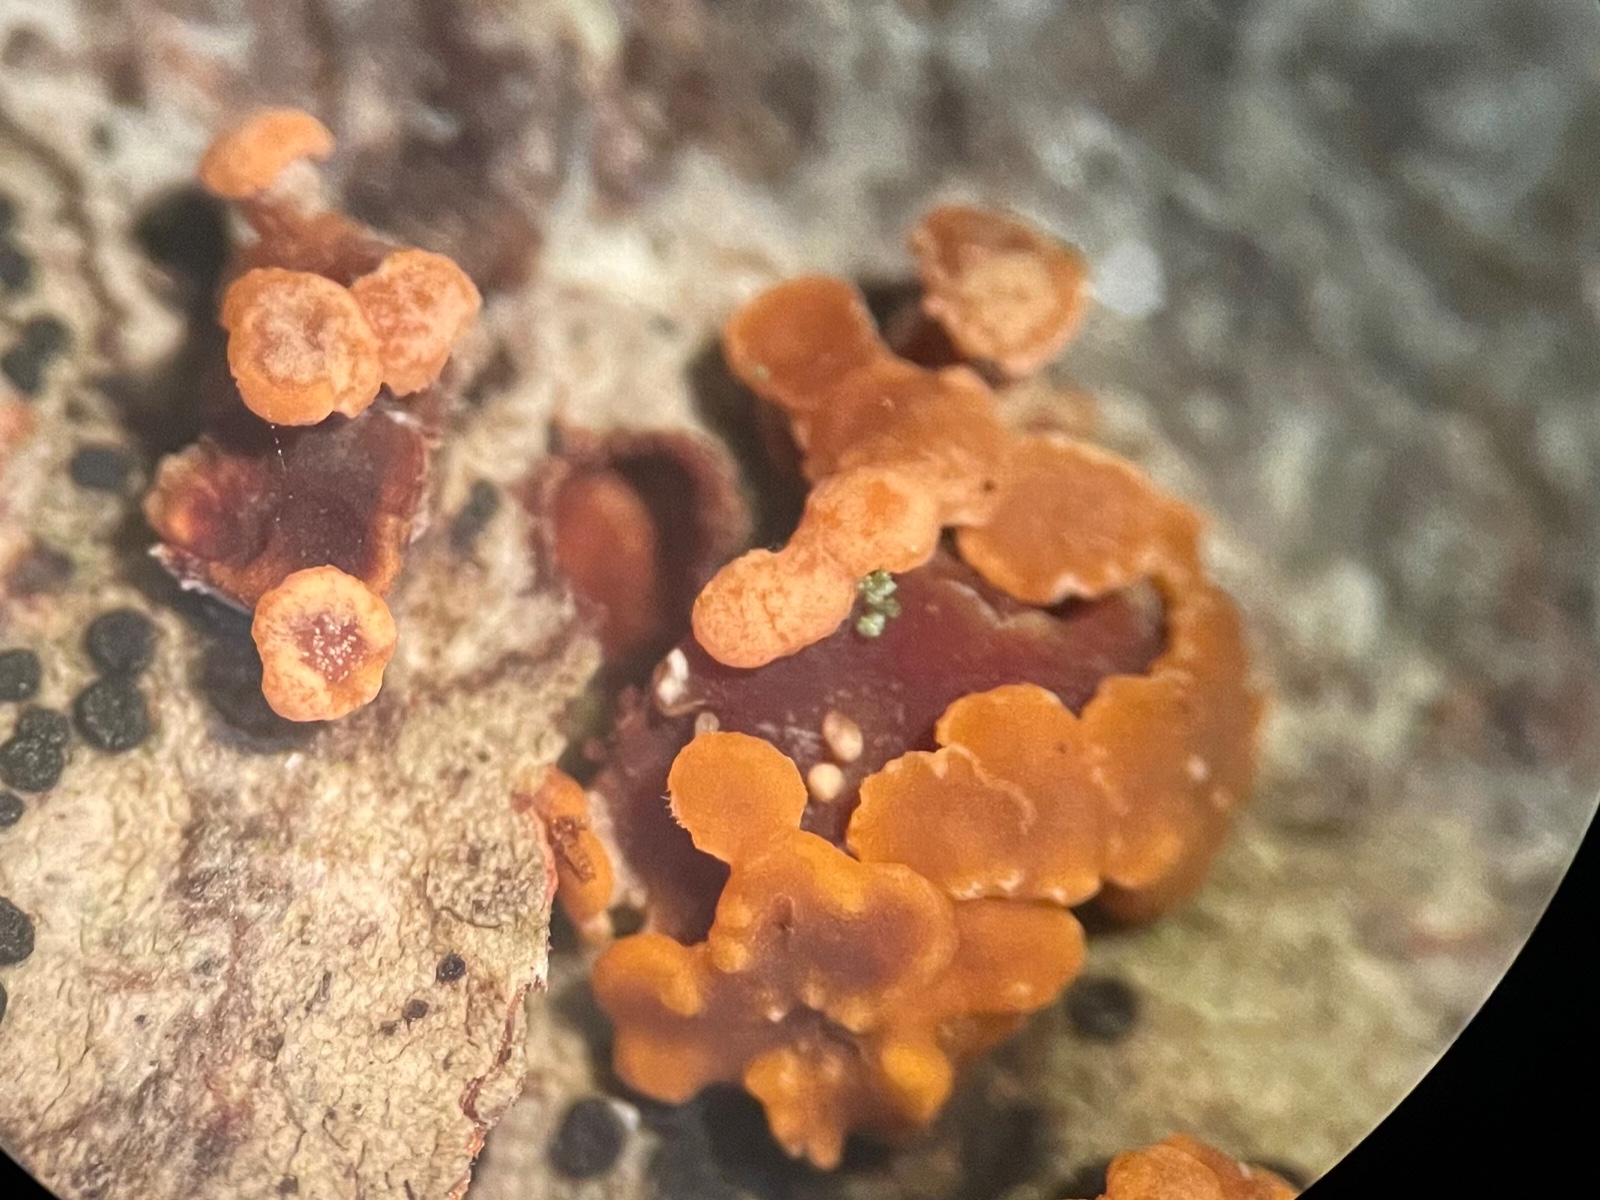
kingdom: Fungi
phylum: Ascomycota
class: Sordariomycetes
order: Hypocreales
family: Nectriaceae
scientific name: Nectriaceae
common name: cinnobersvampfamilien
